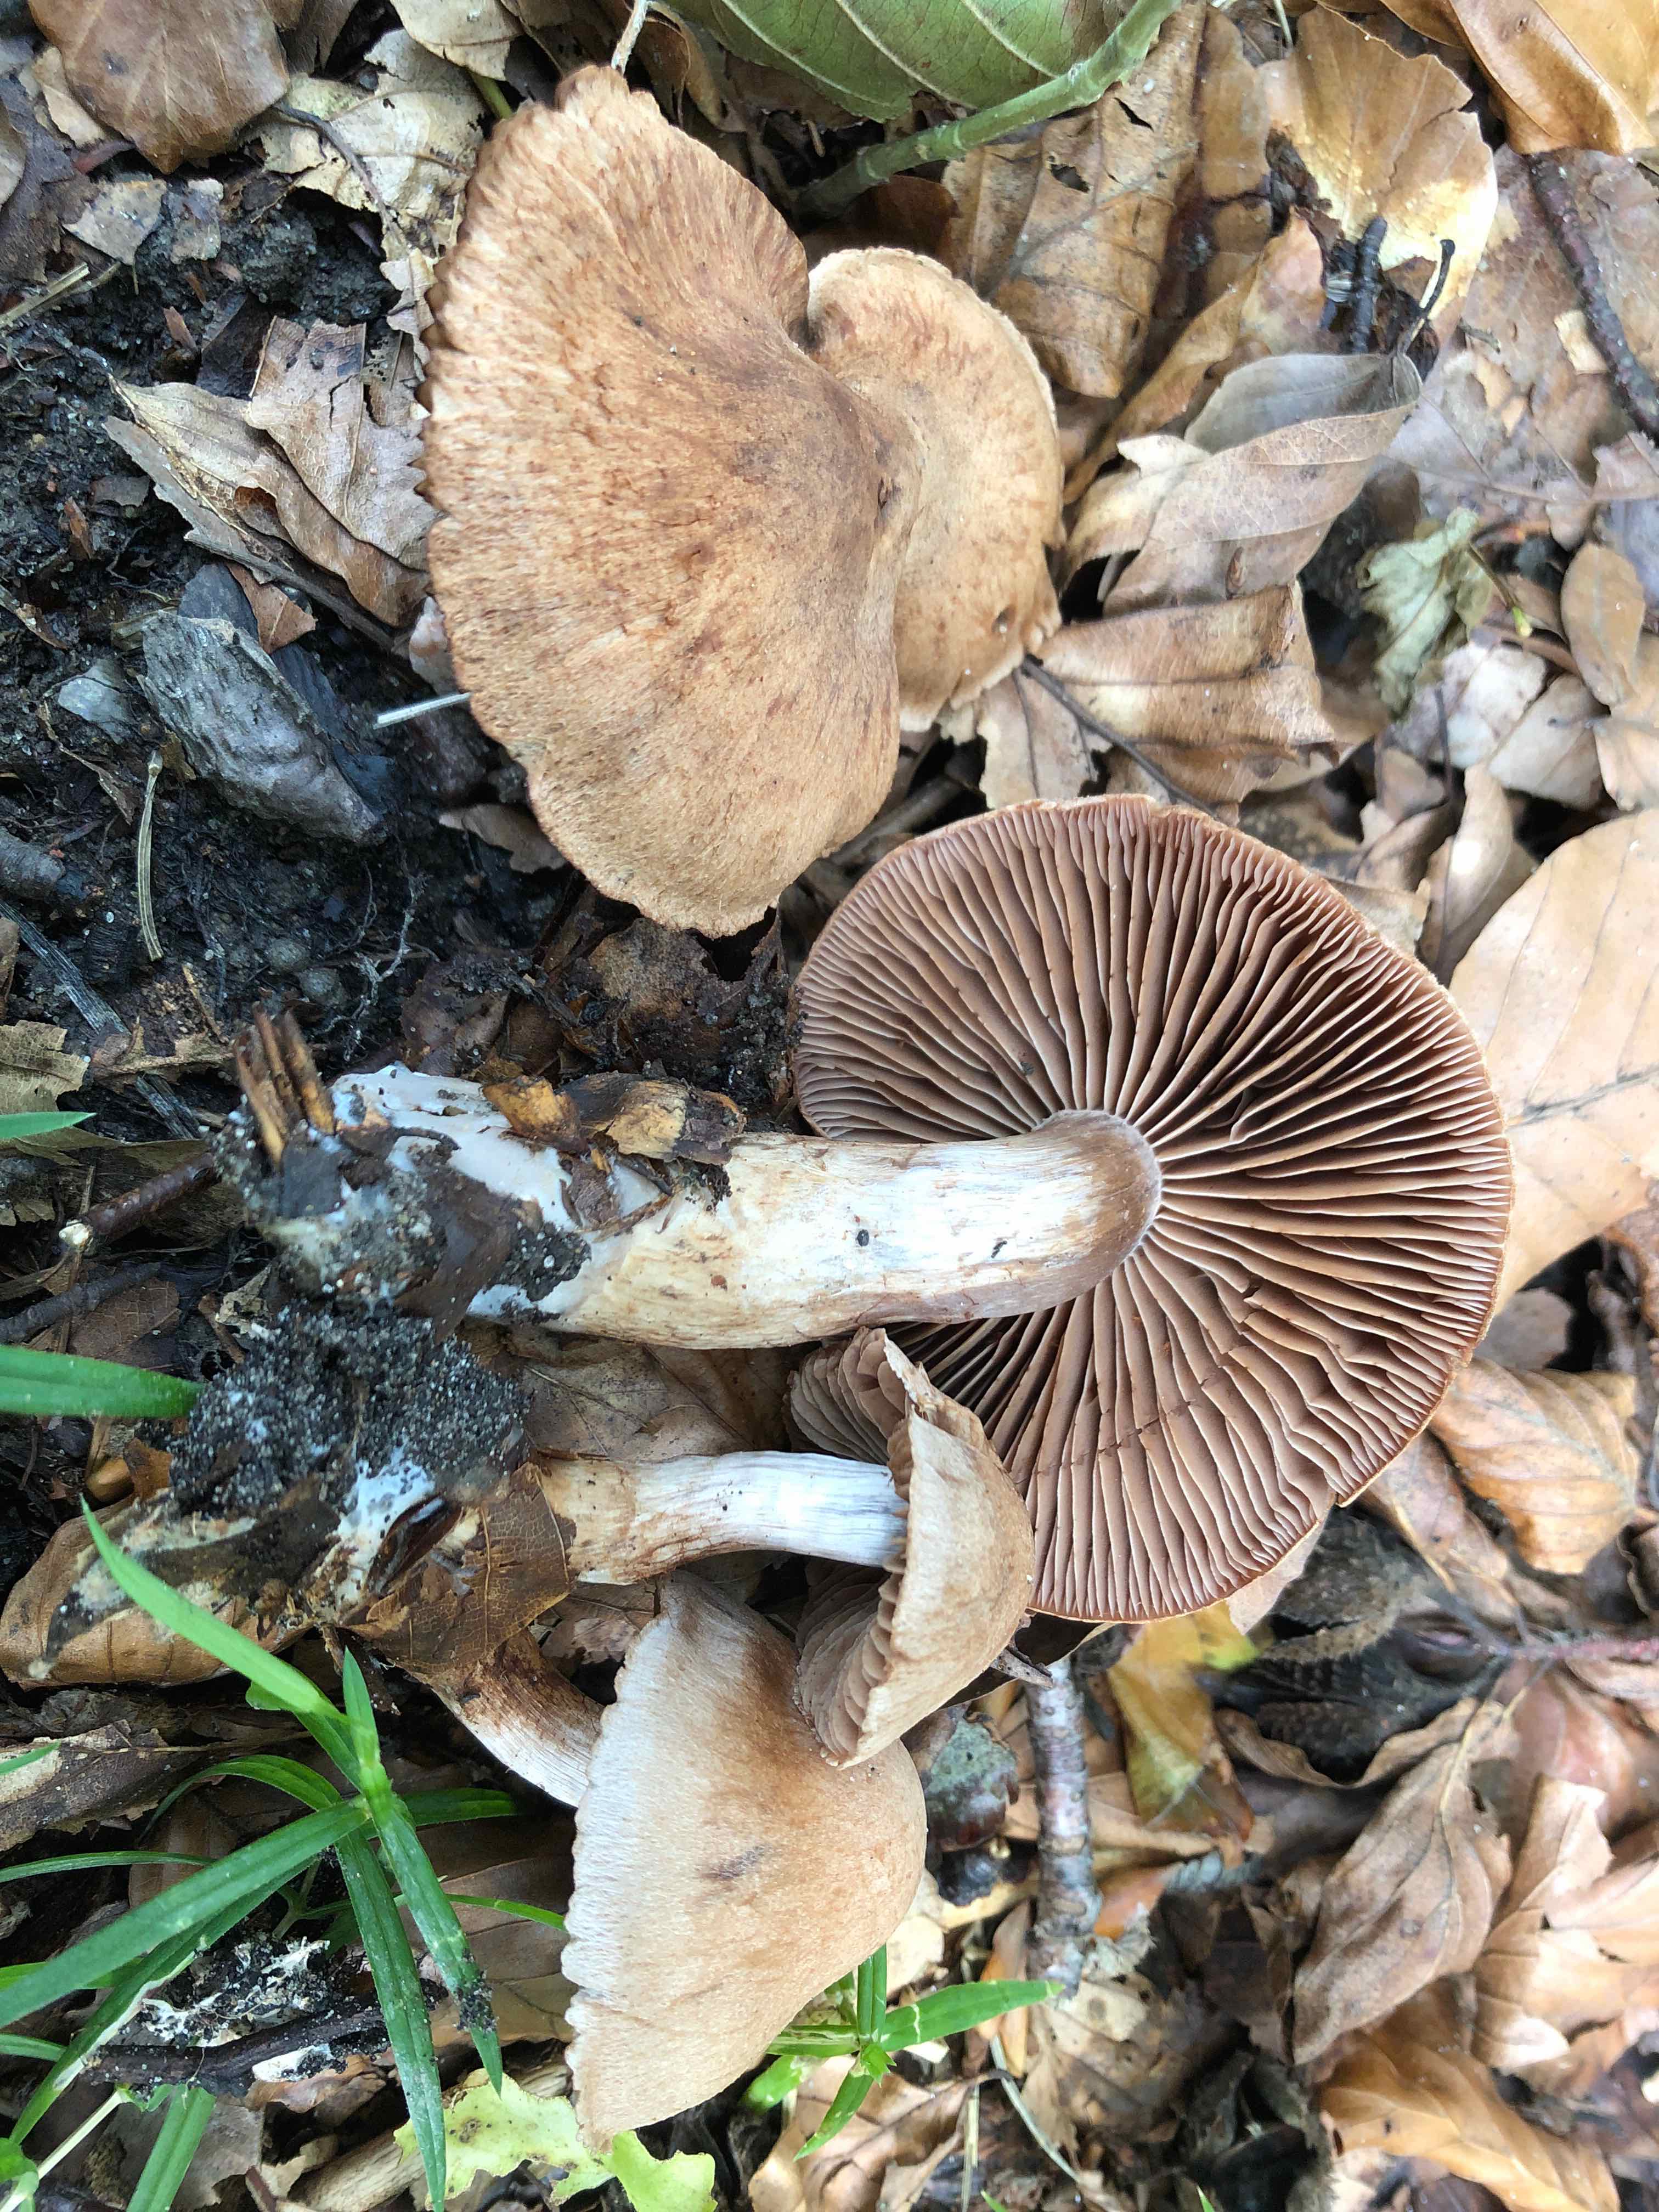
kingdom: Fungi
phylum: Basidiomycota
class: Agaricomycetes
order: Agaricales
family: Cortinariaceae
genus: Cortinarius
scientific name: Cortinarius testaceomicaceus
